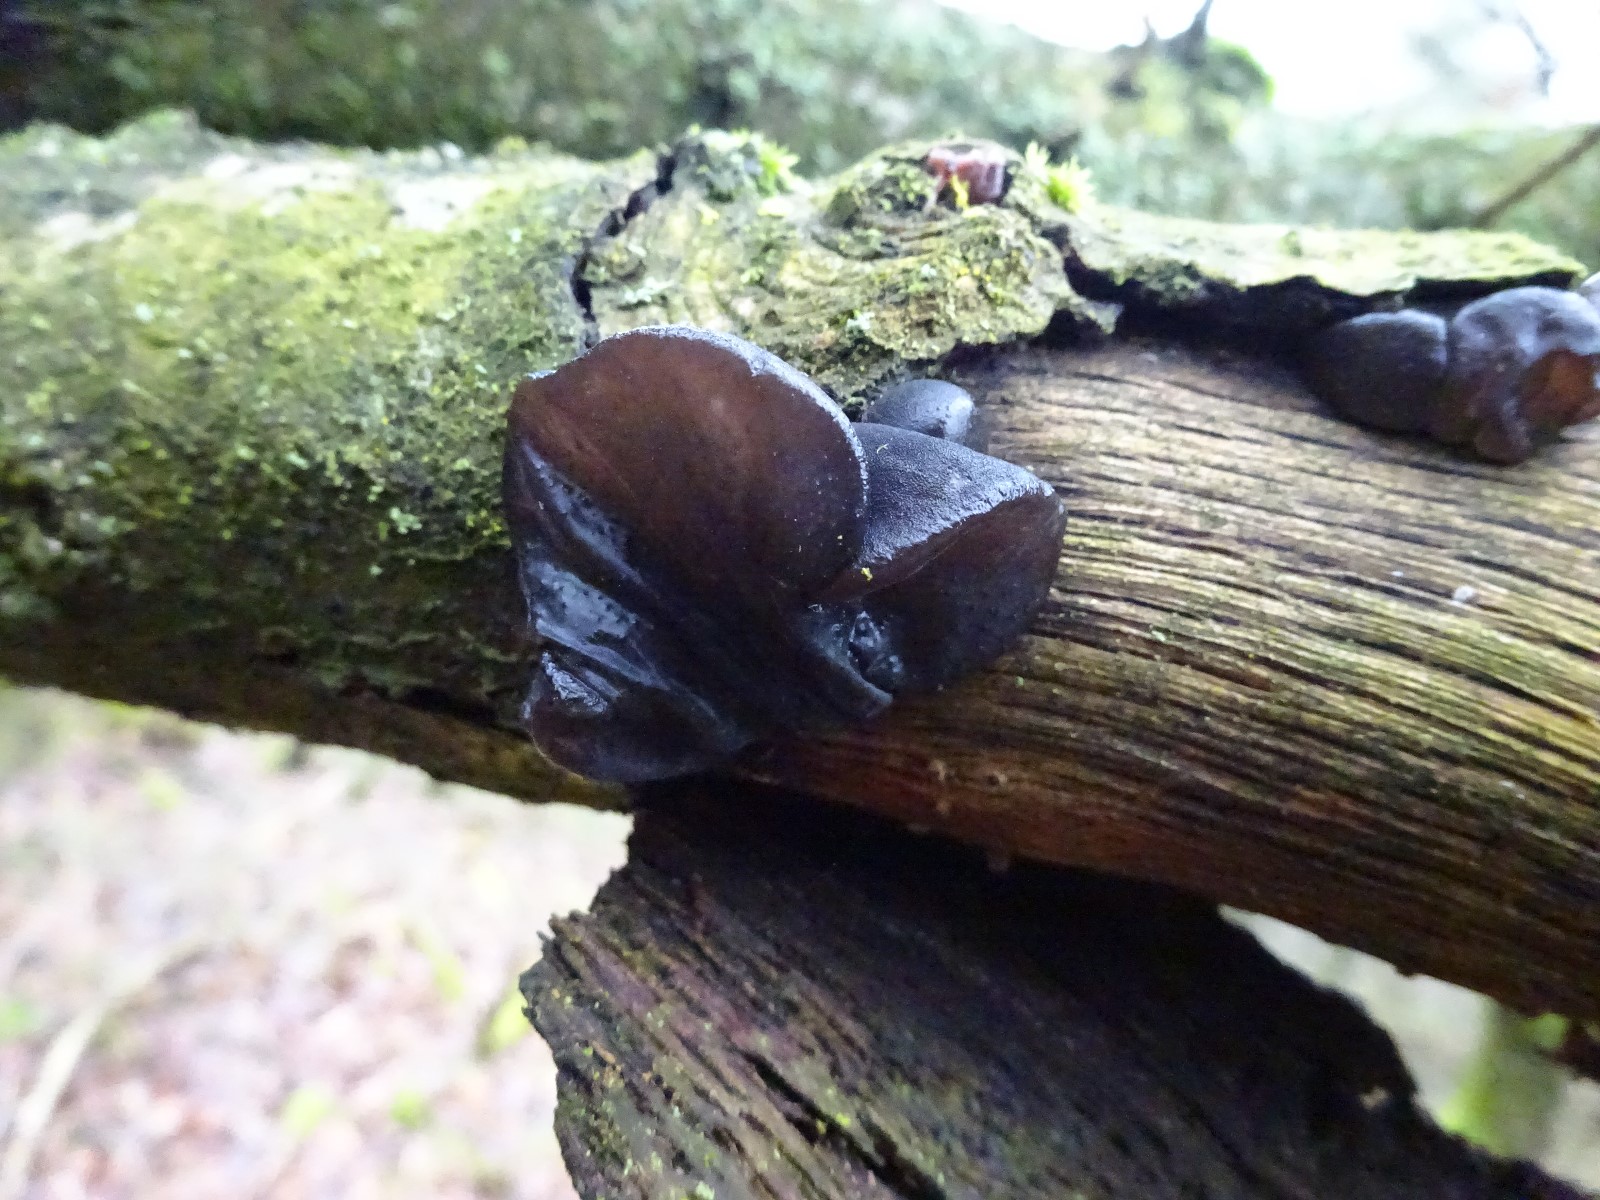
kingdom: Fungi
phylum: Basidiomycota
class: Agaricomycetes
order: Auriculariales
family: Auriculariaceae
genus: Exidia
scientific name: Exidia glandulosa
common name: ege-bævretop
